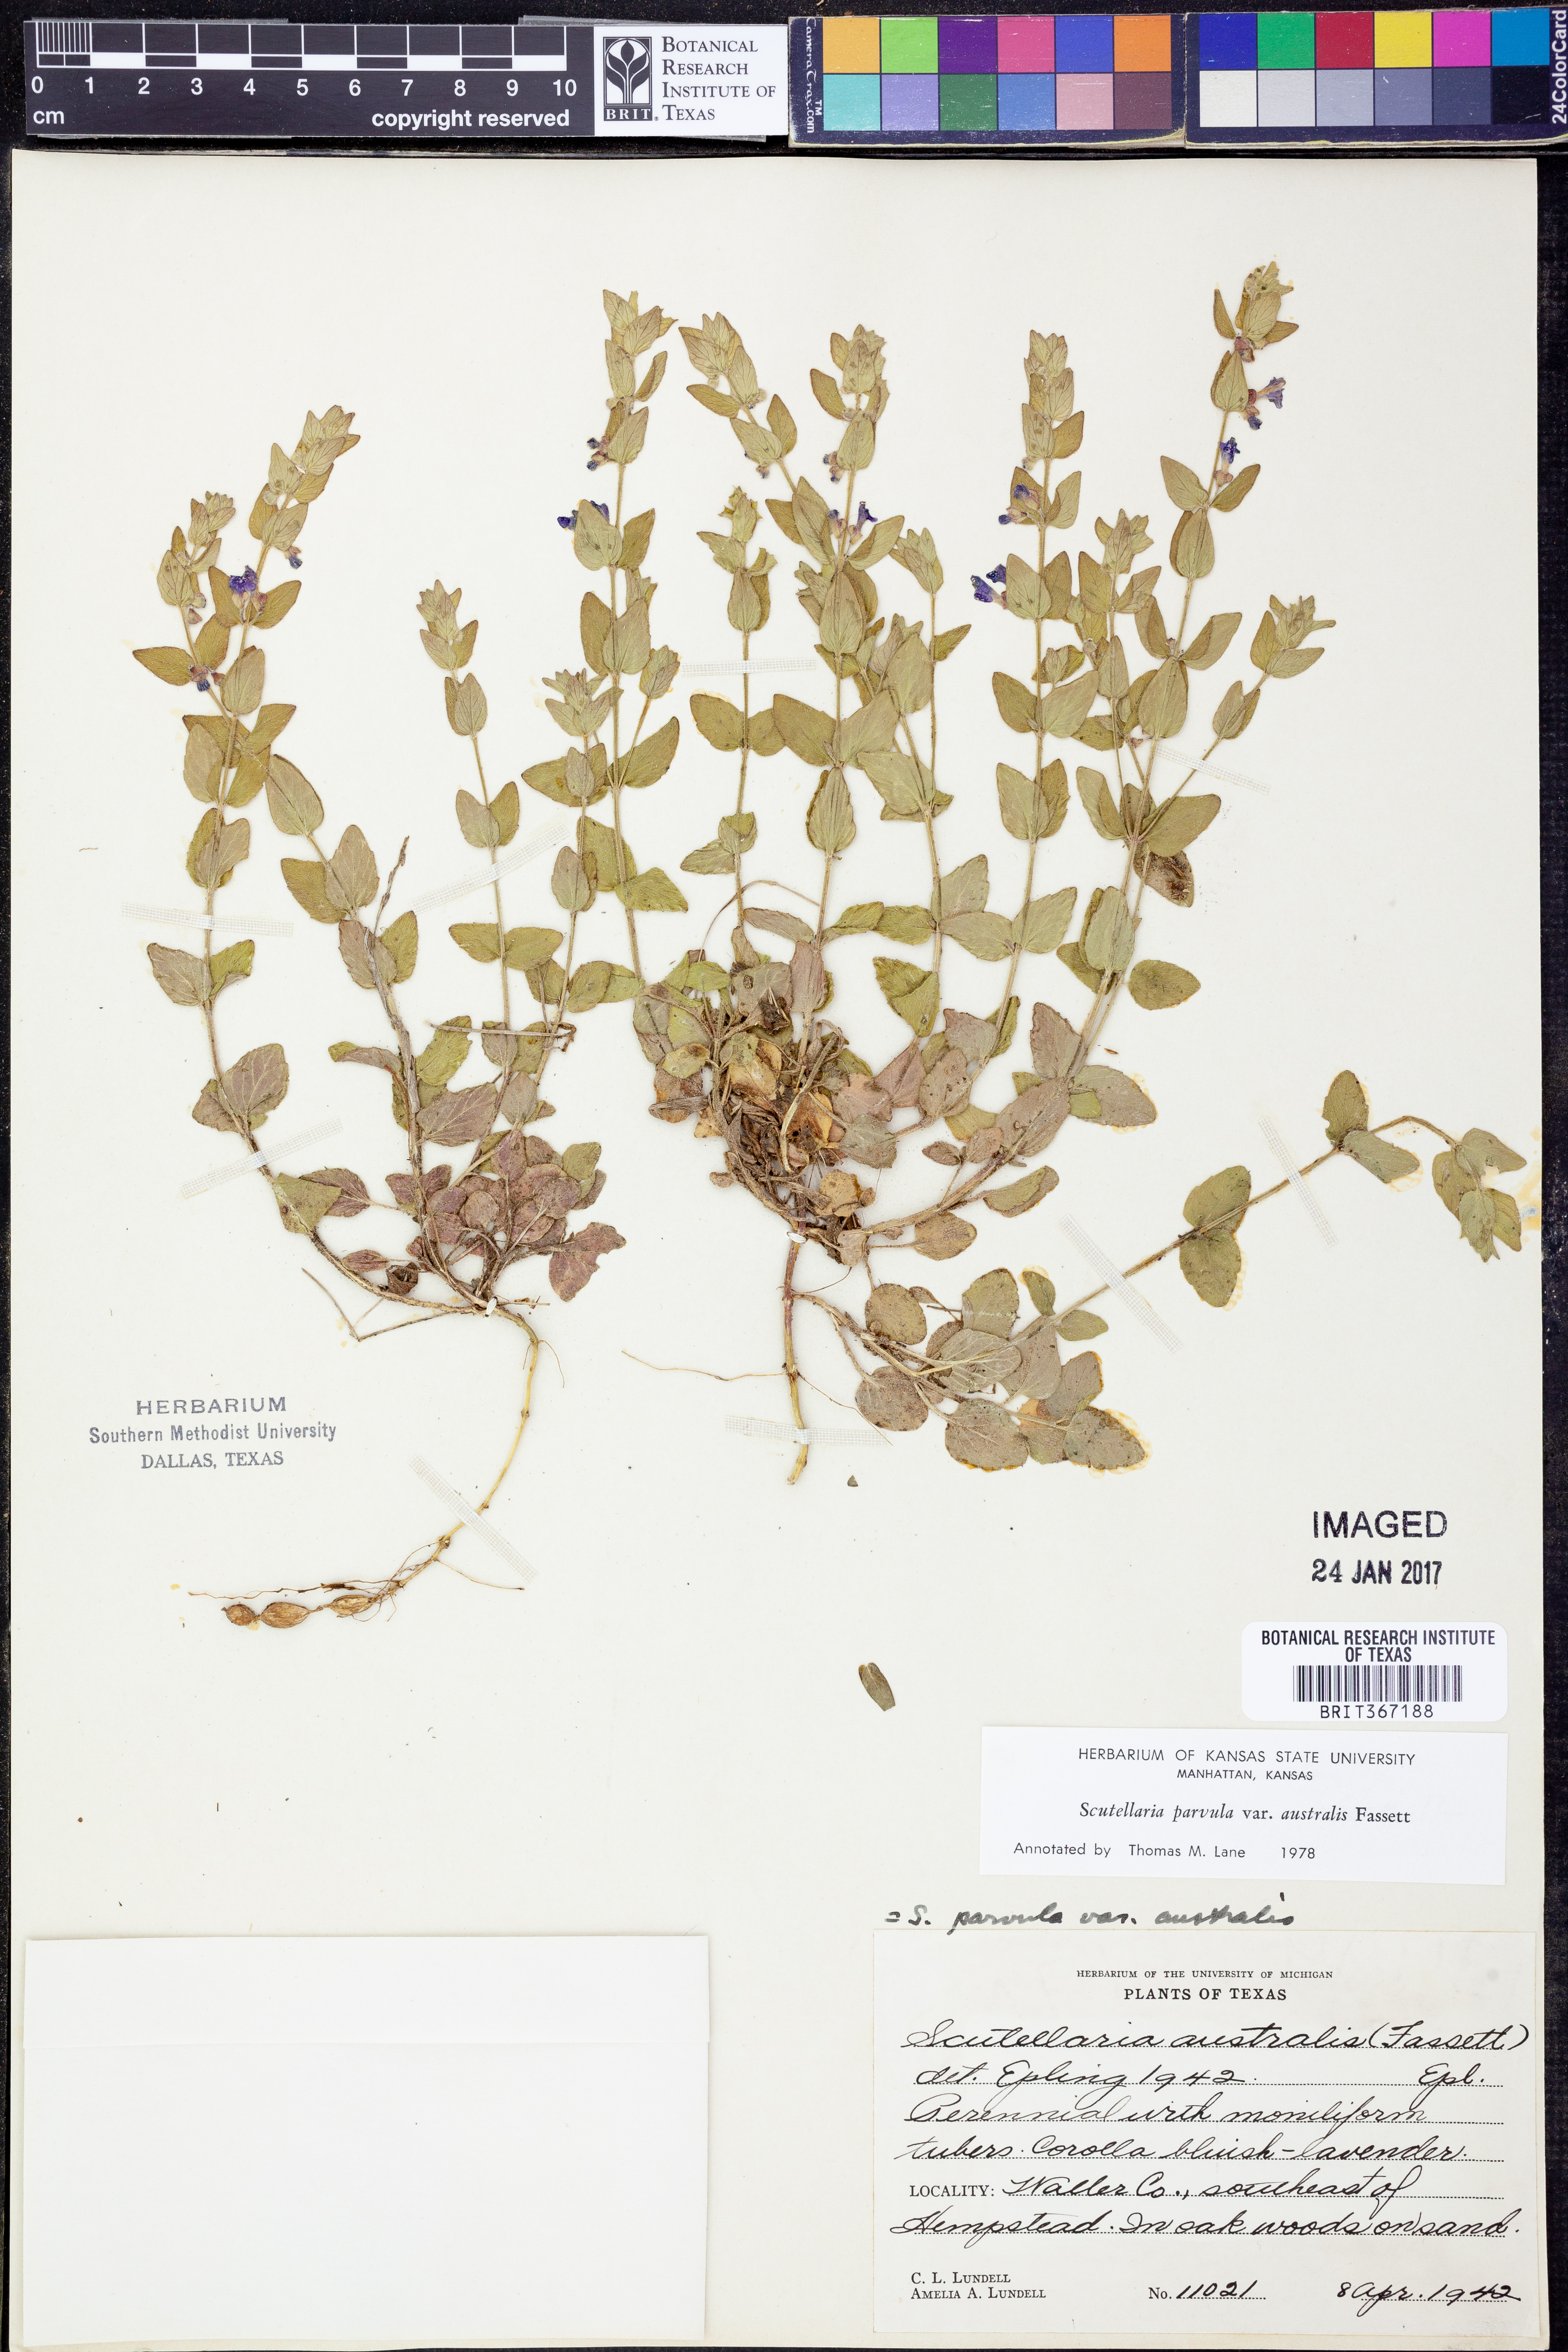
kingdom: Plantae
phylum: Tracheophyta
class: Magnoliopsida
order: Lamiales
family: Lamiaceae
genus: Scutellaria
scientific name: Scutellaria parvula
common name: Little scullcap
